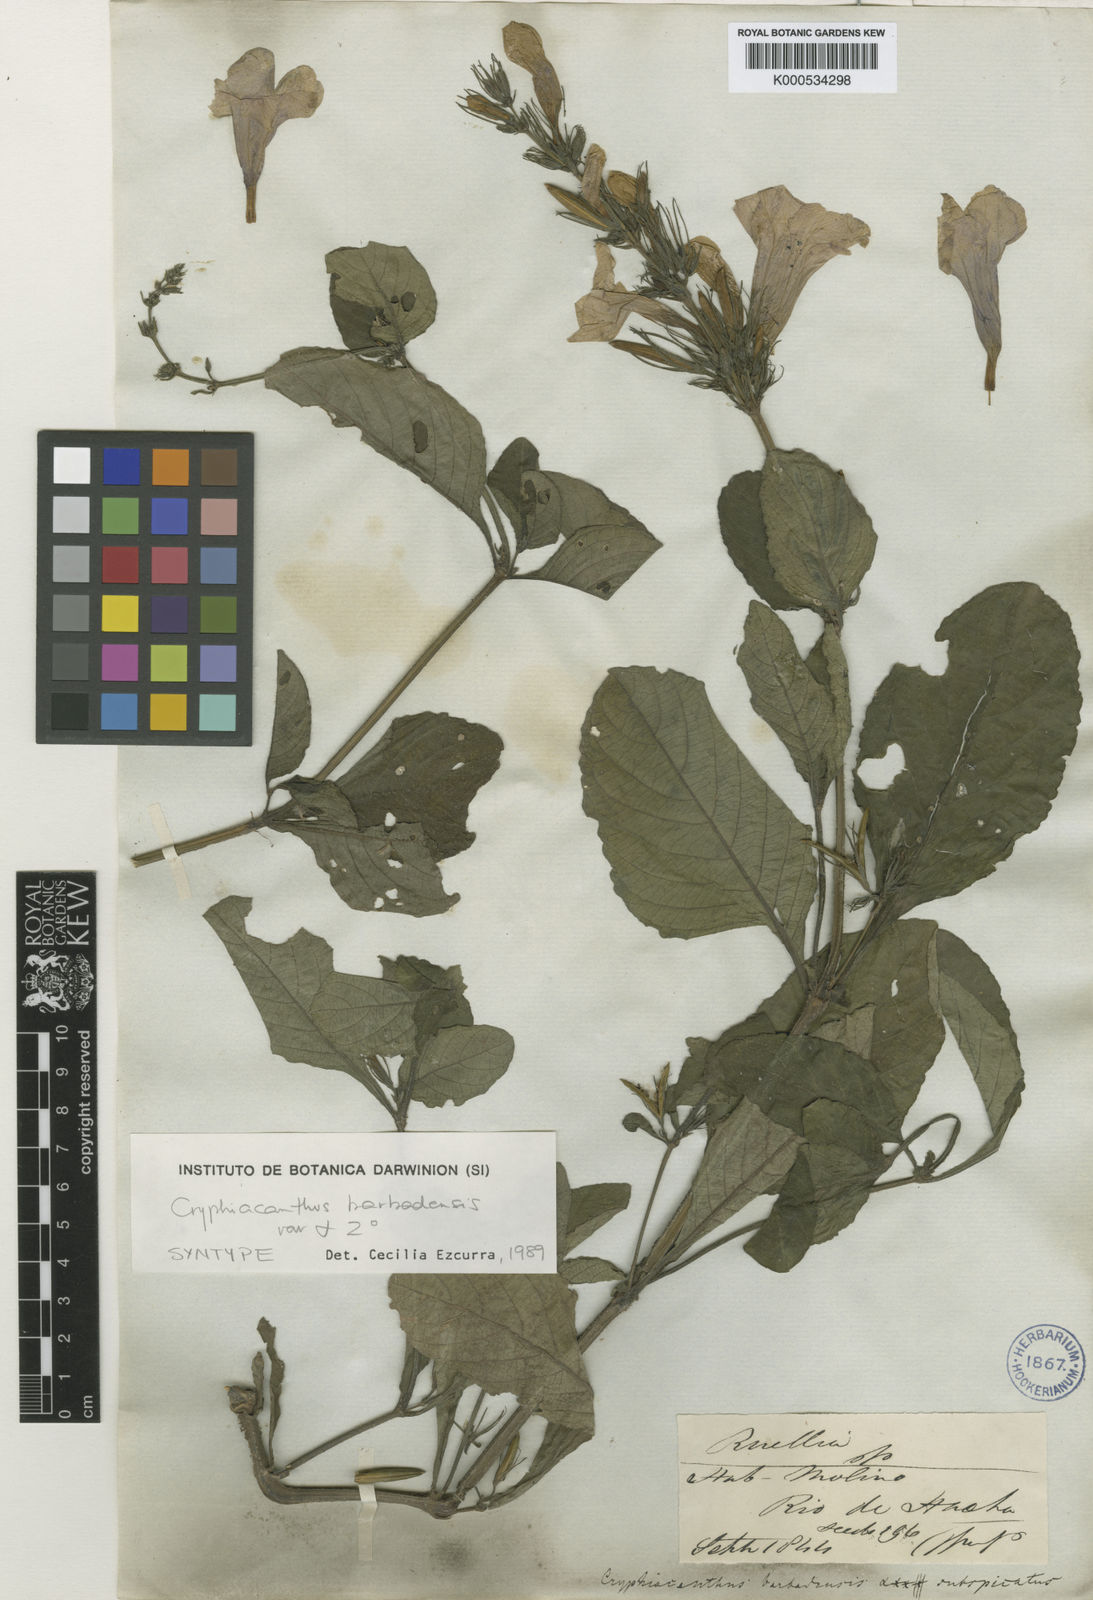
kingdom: Plantae
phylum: Tracheophyta
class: Magnoliopsida
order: Lamiales
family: Acanthaceae
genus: Ruellia
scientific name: Ruellia
